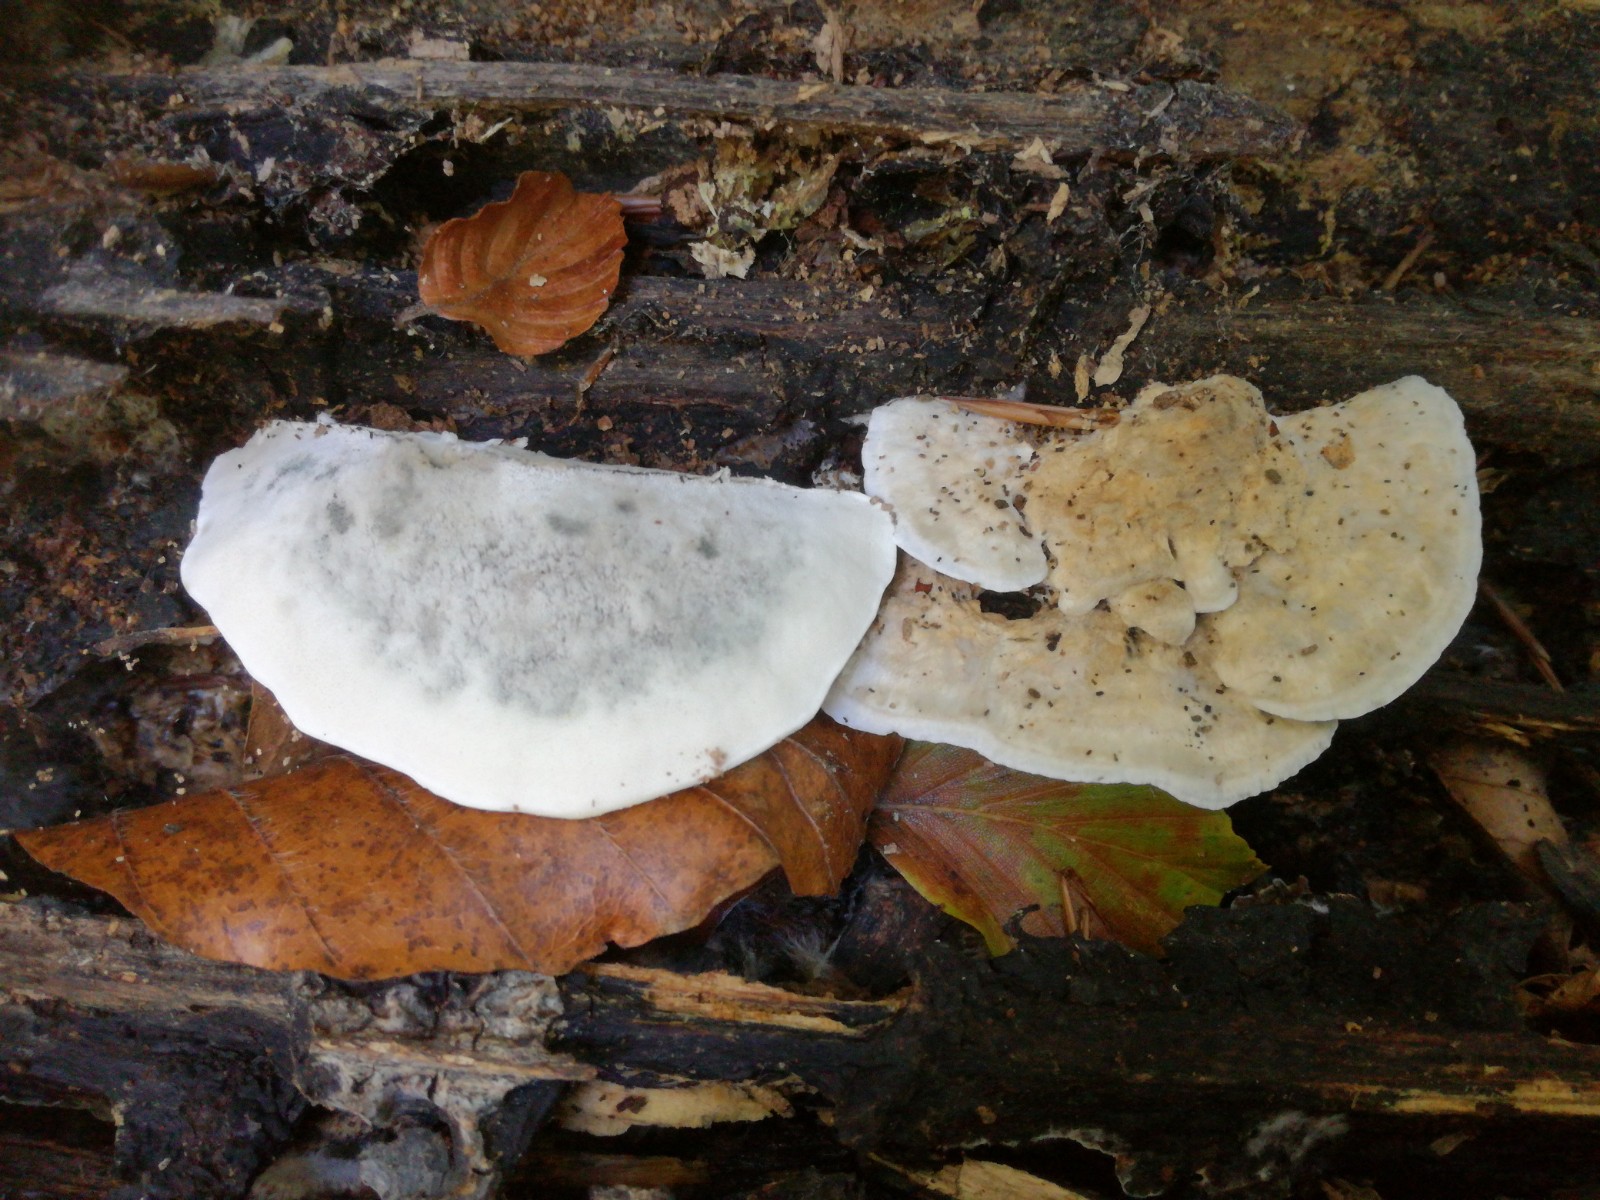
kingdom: Fungi
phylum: Basidiomycota
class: Agaricomycetes
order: Polyporales
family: Dacryobolaceae
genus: Postia
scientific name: Postia
